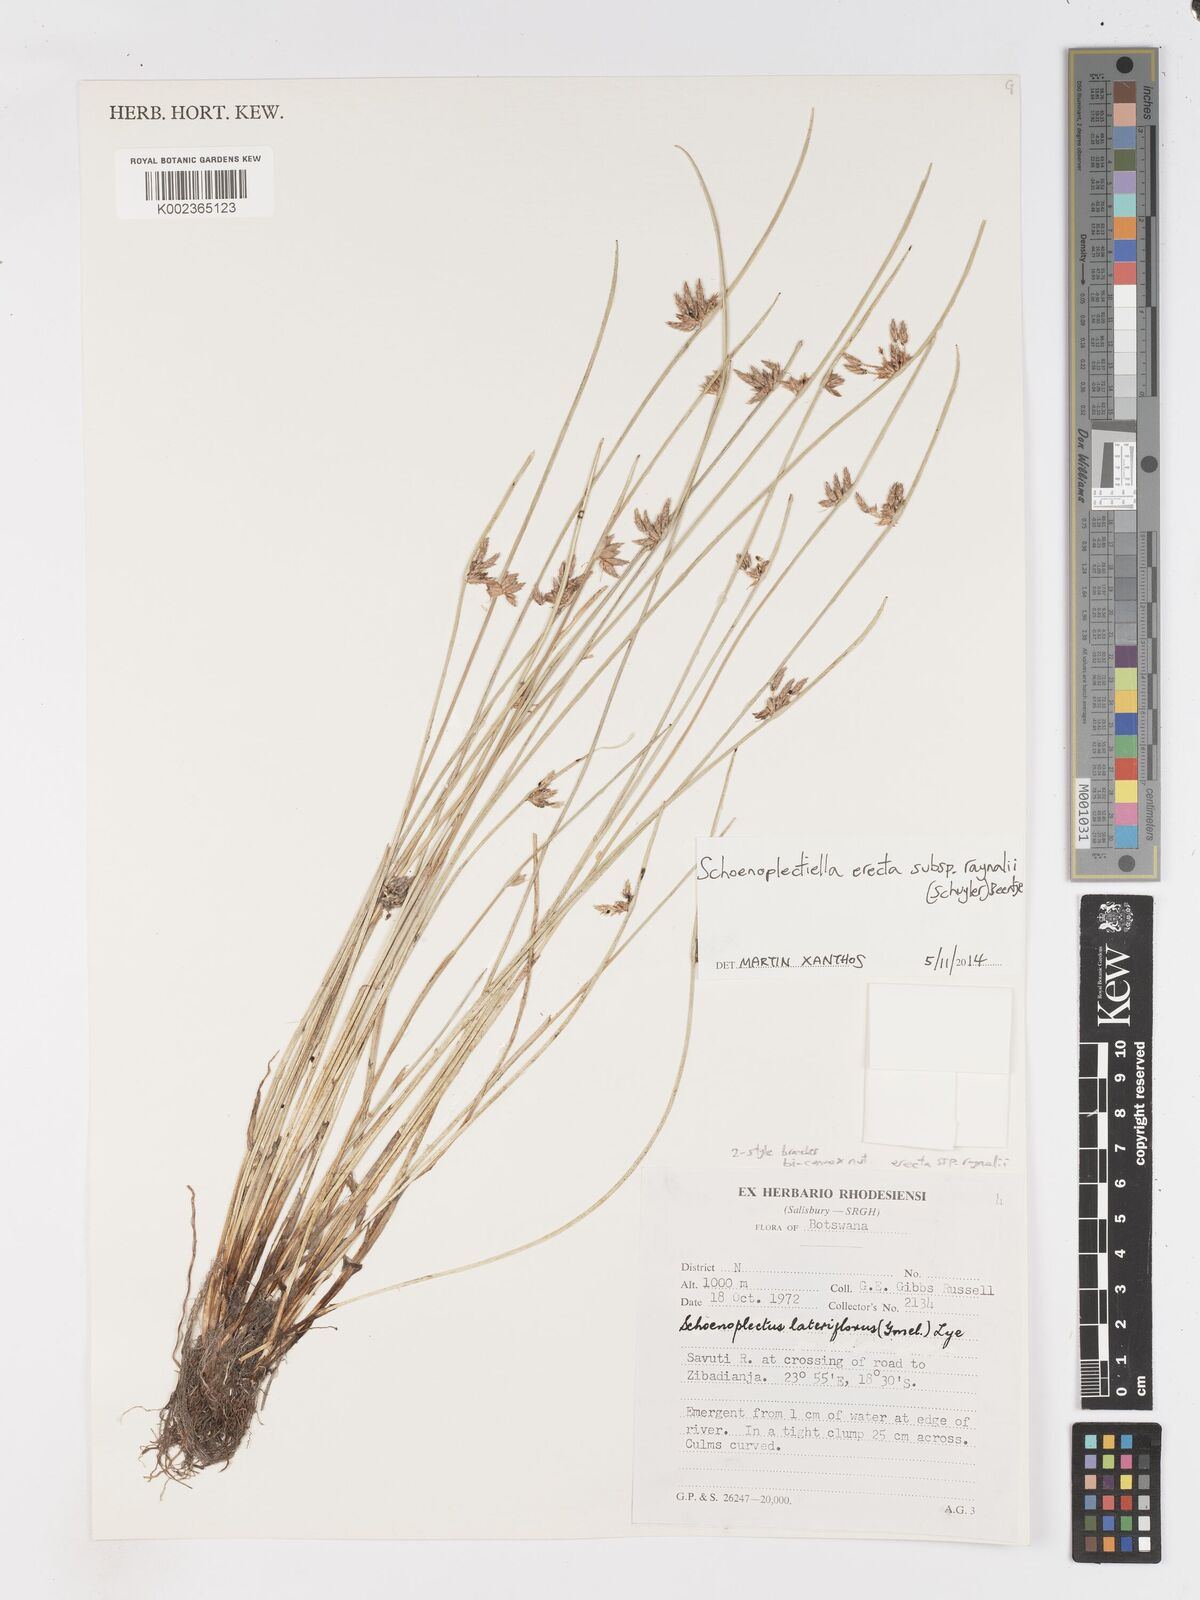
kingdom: Plantae
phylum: Tracheophyta
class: Liliopsida
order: Poales
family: Cyperaceae
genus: Schoenoplectiella
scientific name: Schoenoplectiella erecta
